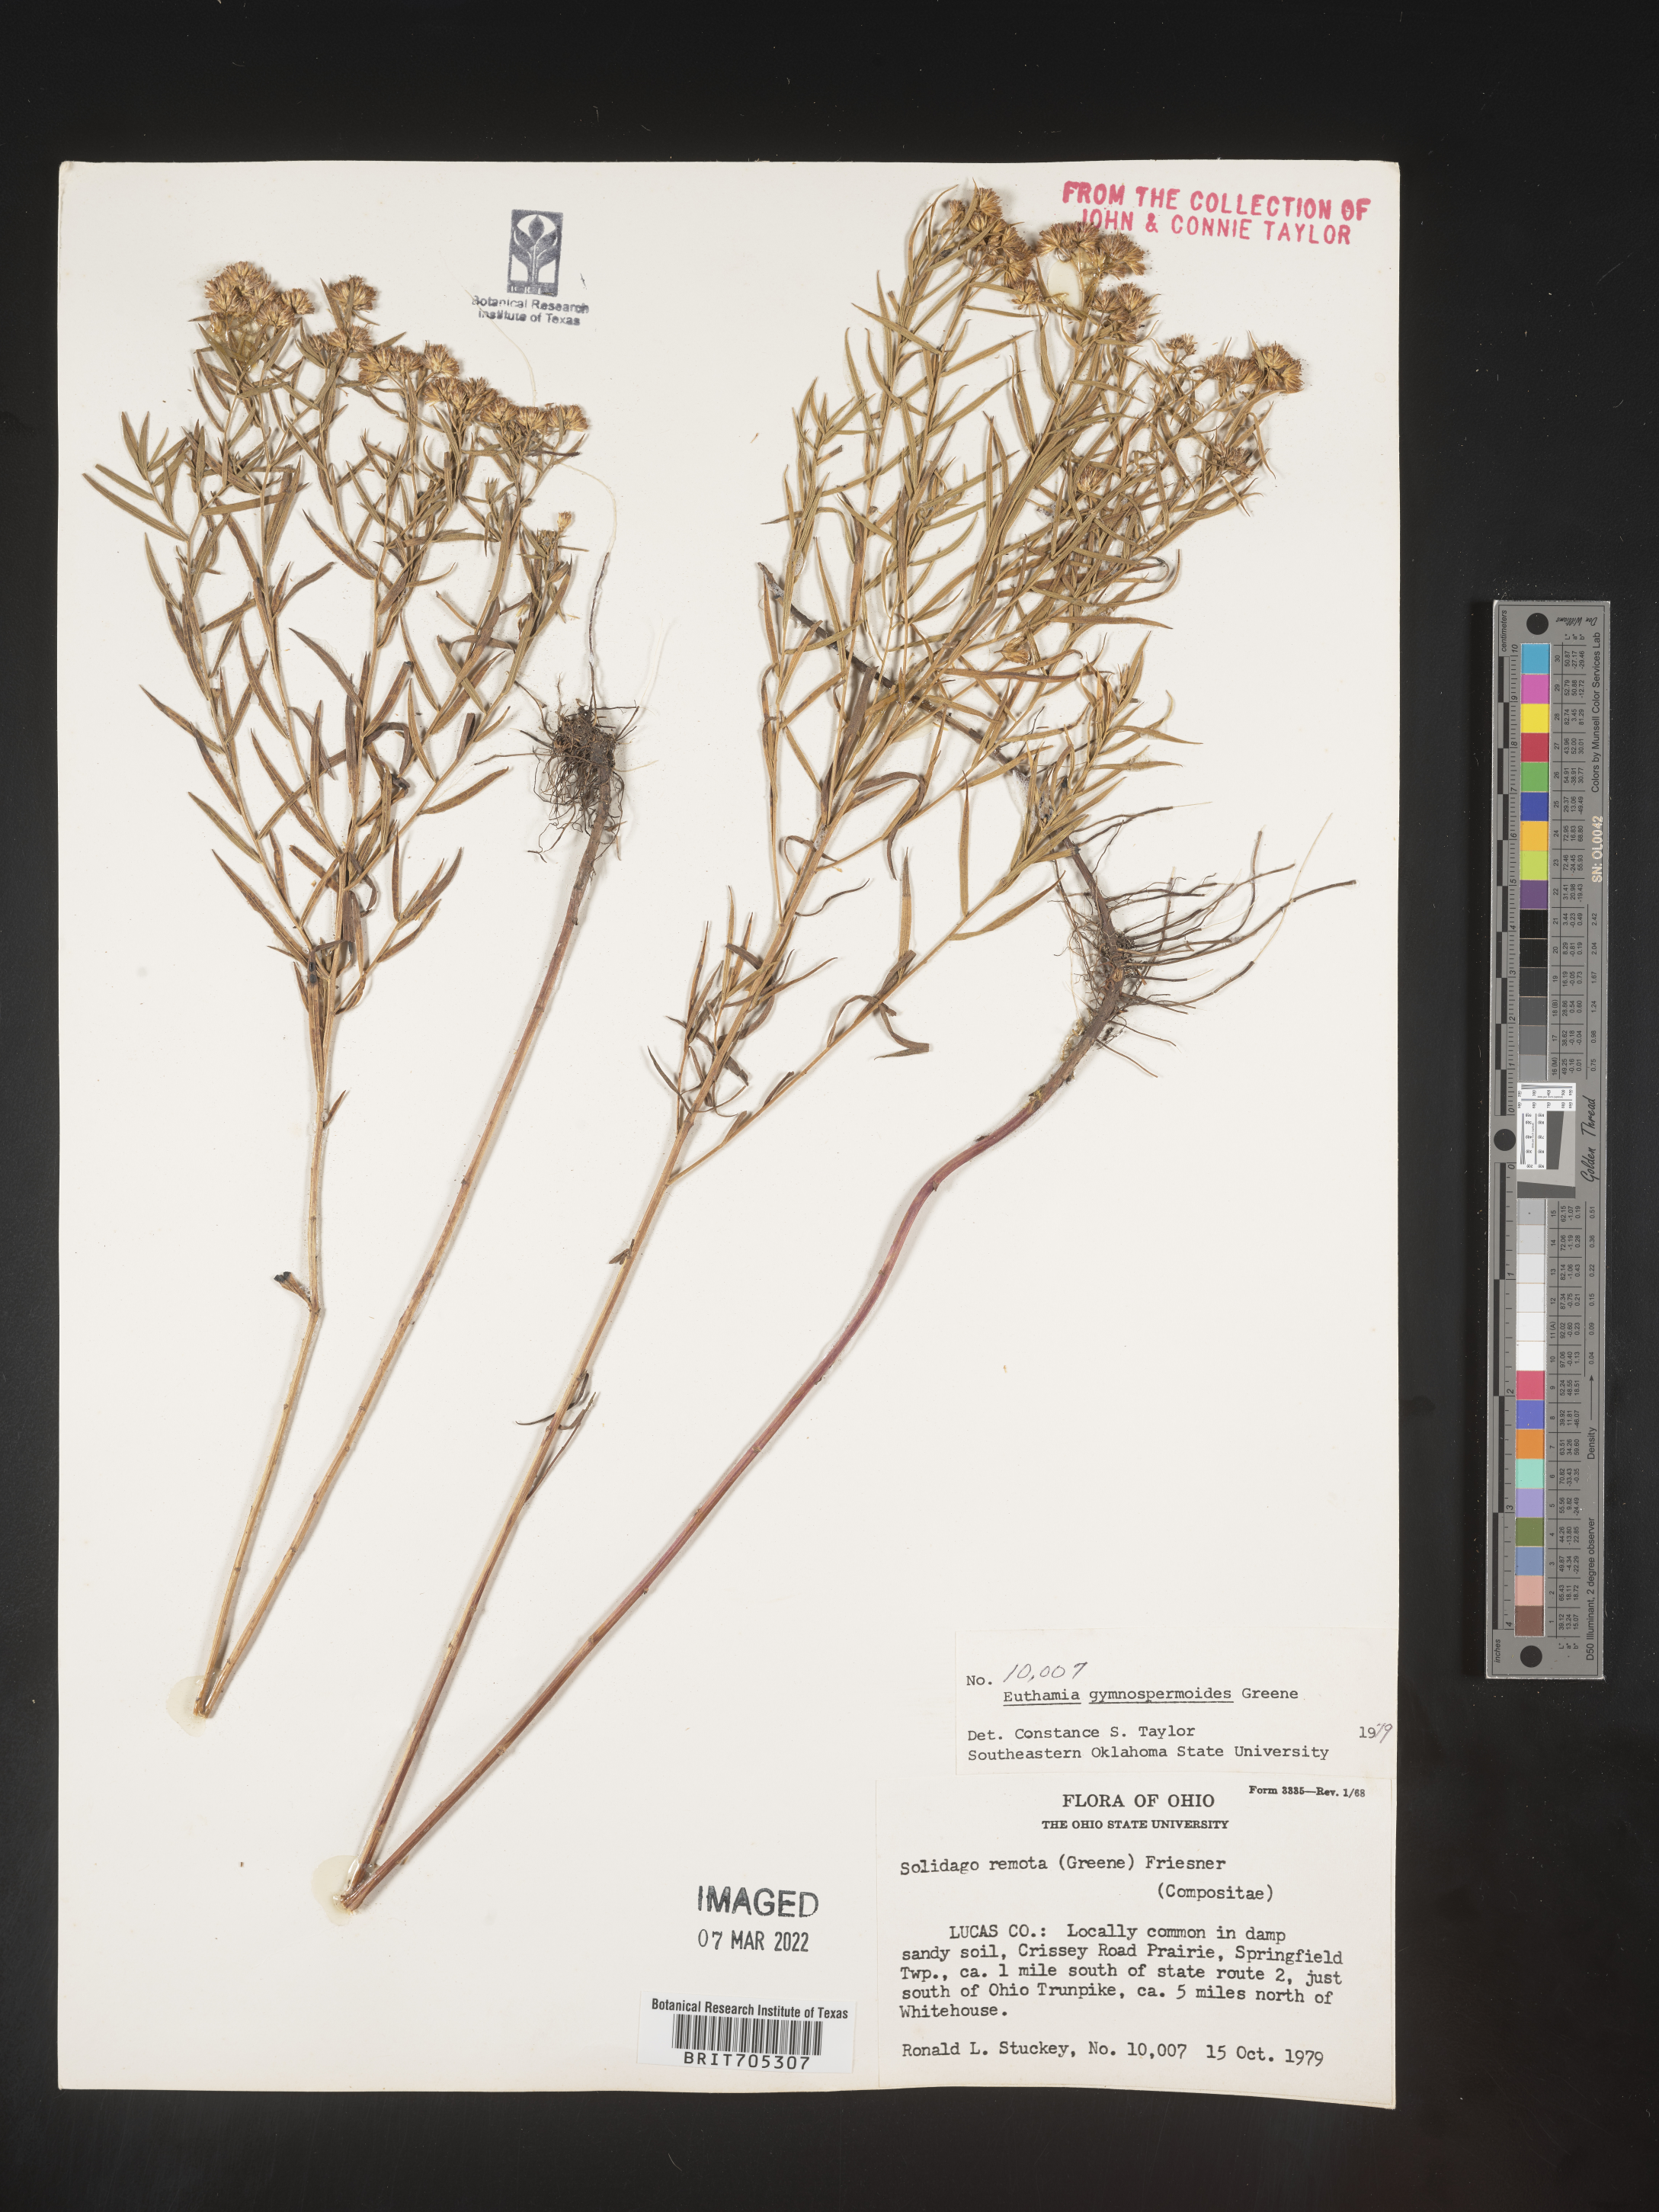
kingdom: Plantae
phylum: Tracheophyta
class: Magnoliopsida
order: Asterales
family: Asteraceae
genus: Euthamia
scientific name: Euthamia gymnospermoides
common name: Great plains goldentop
